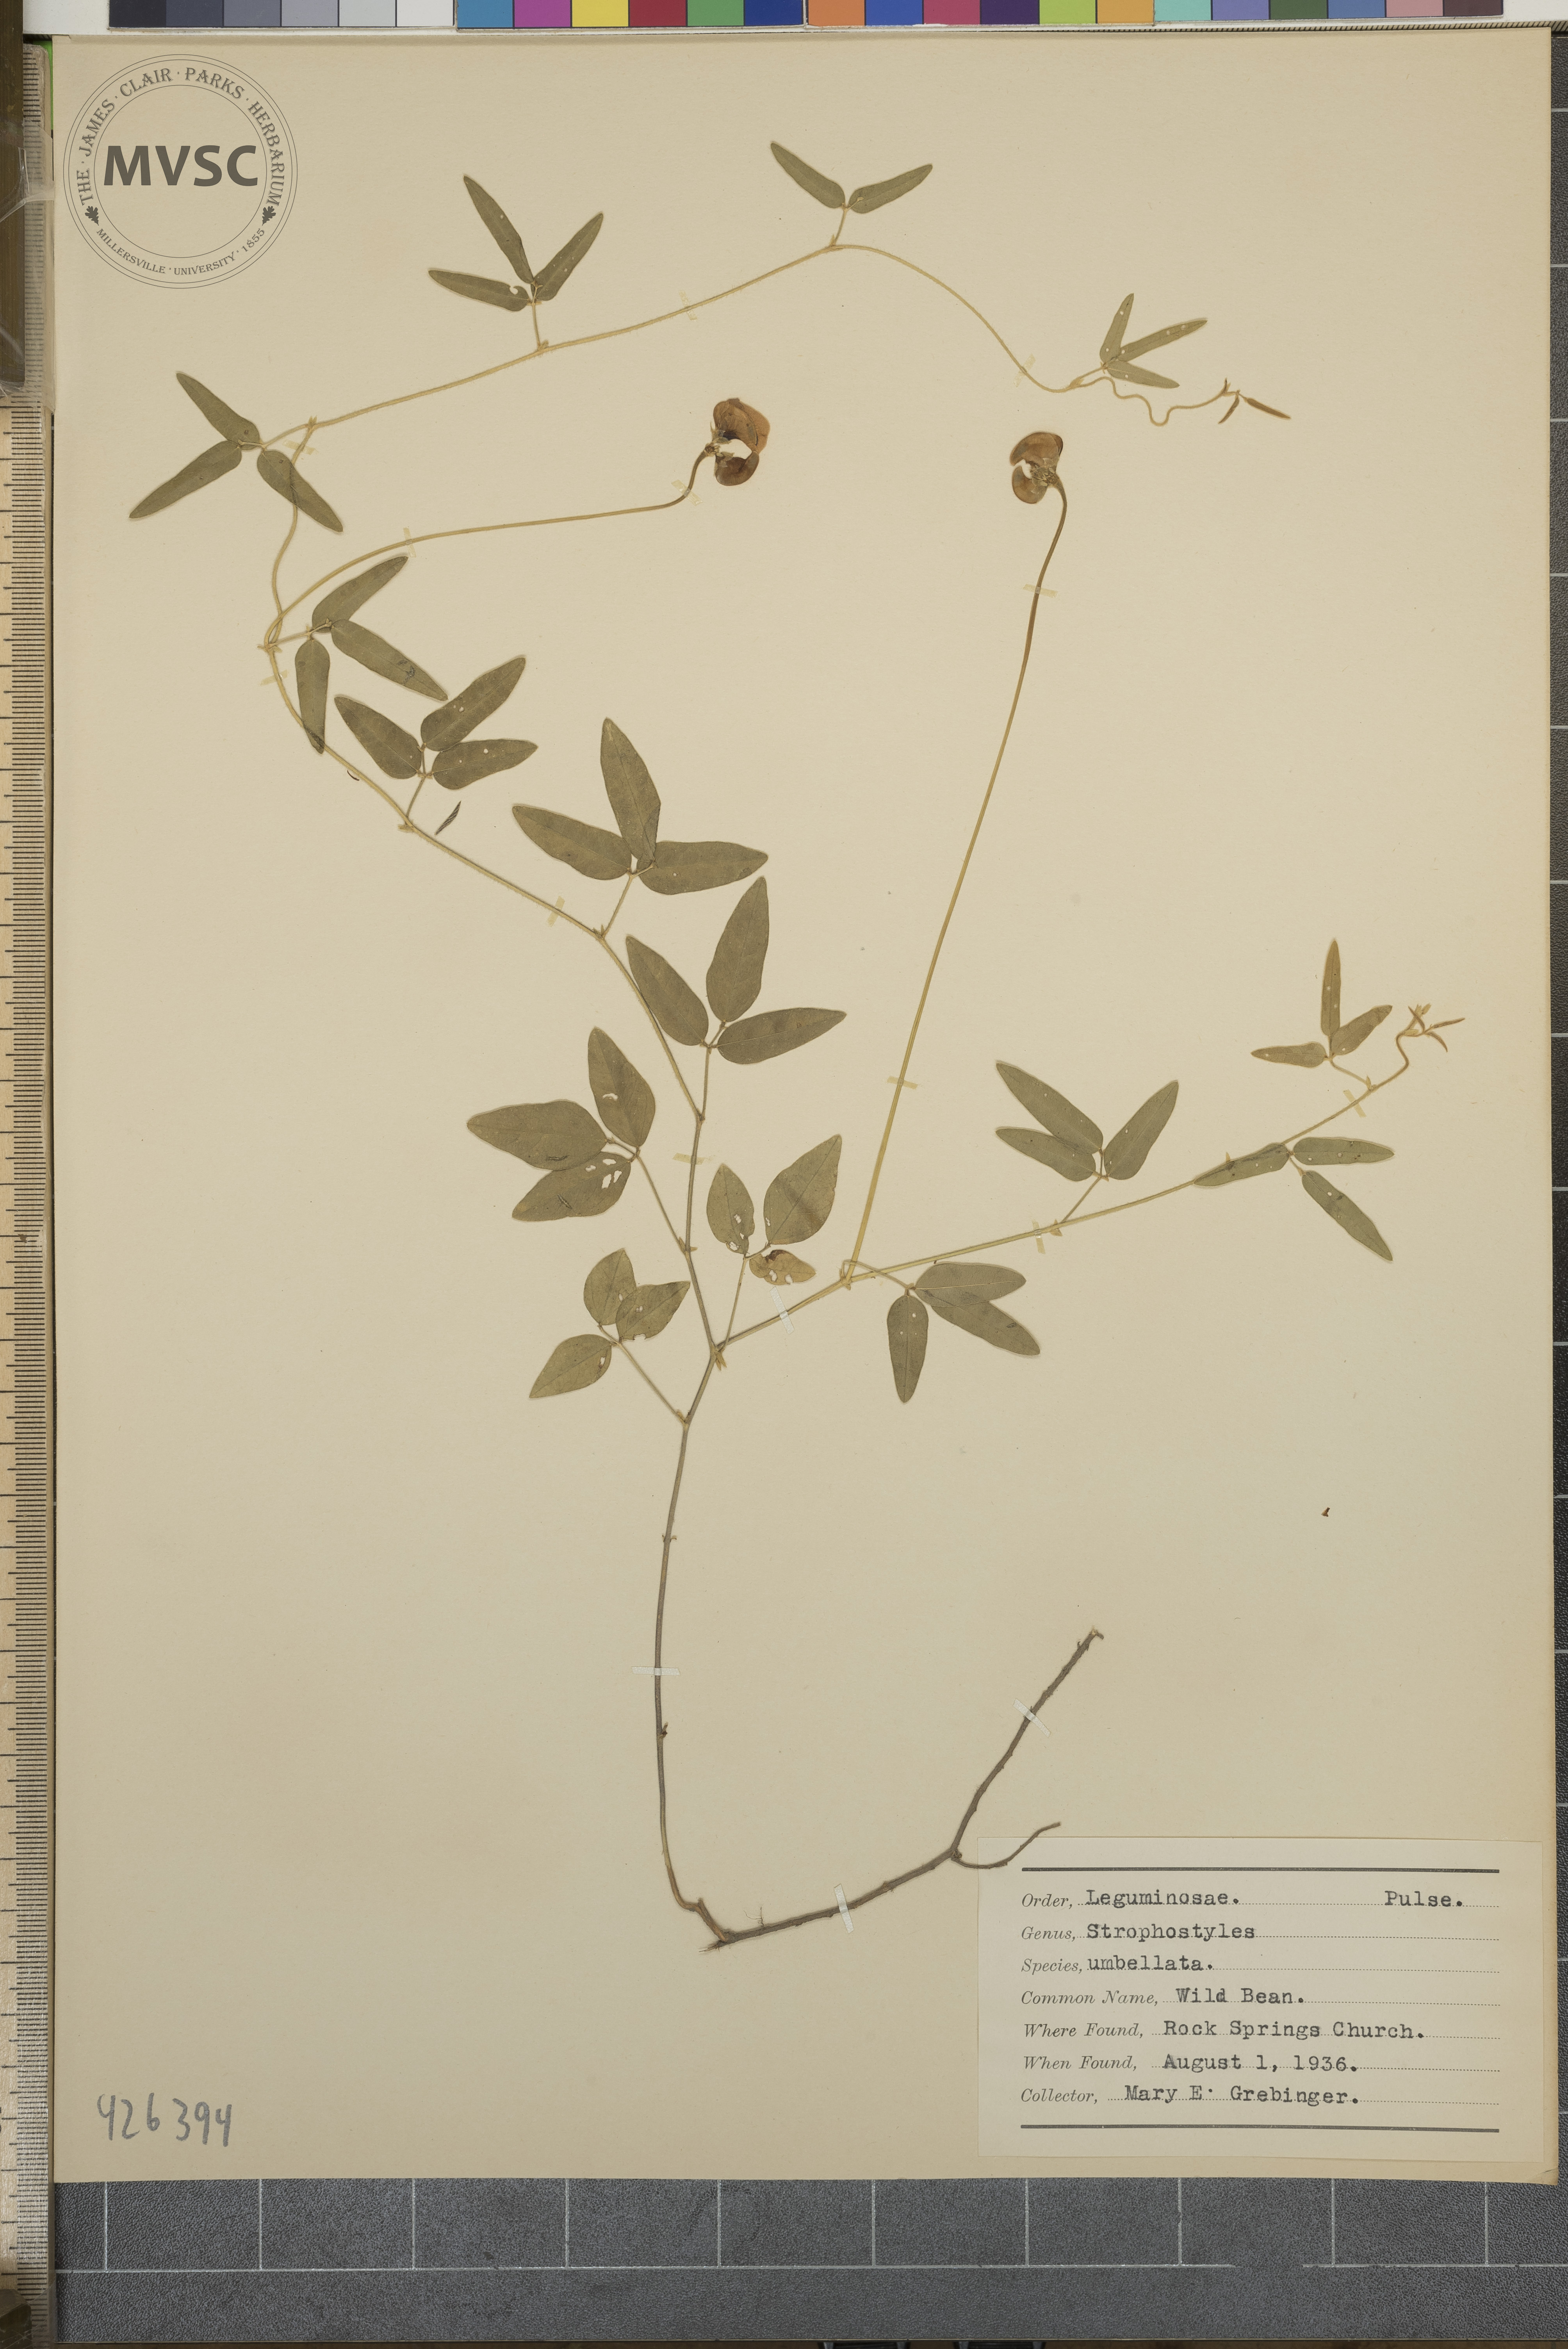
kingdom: Plantae
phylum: Tracheophyta
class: Magnoliopsida
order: Fabales
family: Fabaceae
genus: Strophostyles
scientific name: Strophostyles umbellata
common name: Wild bean
